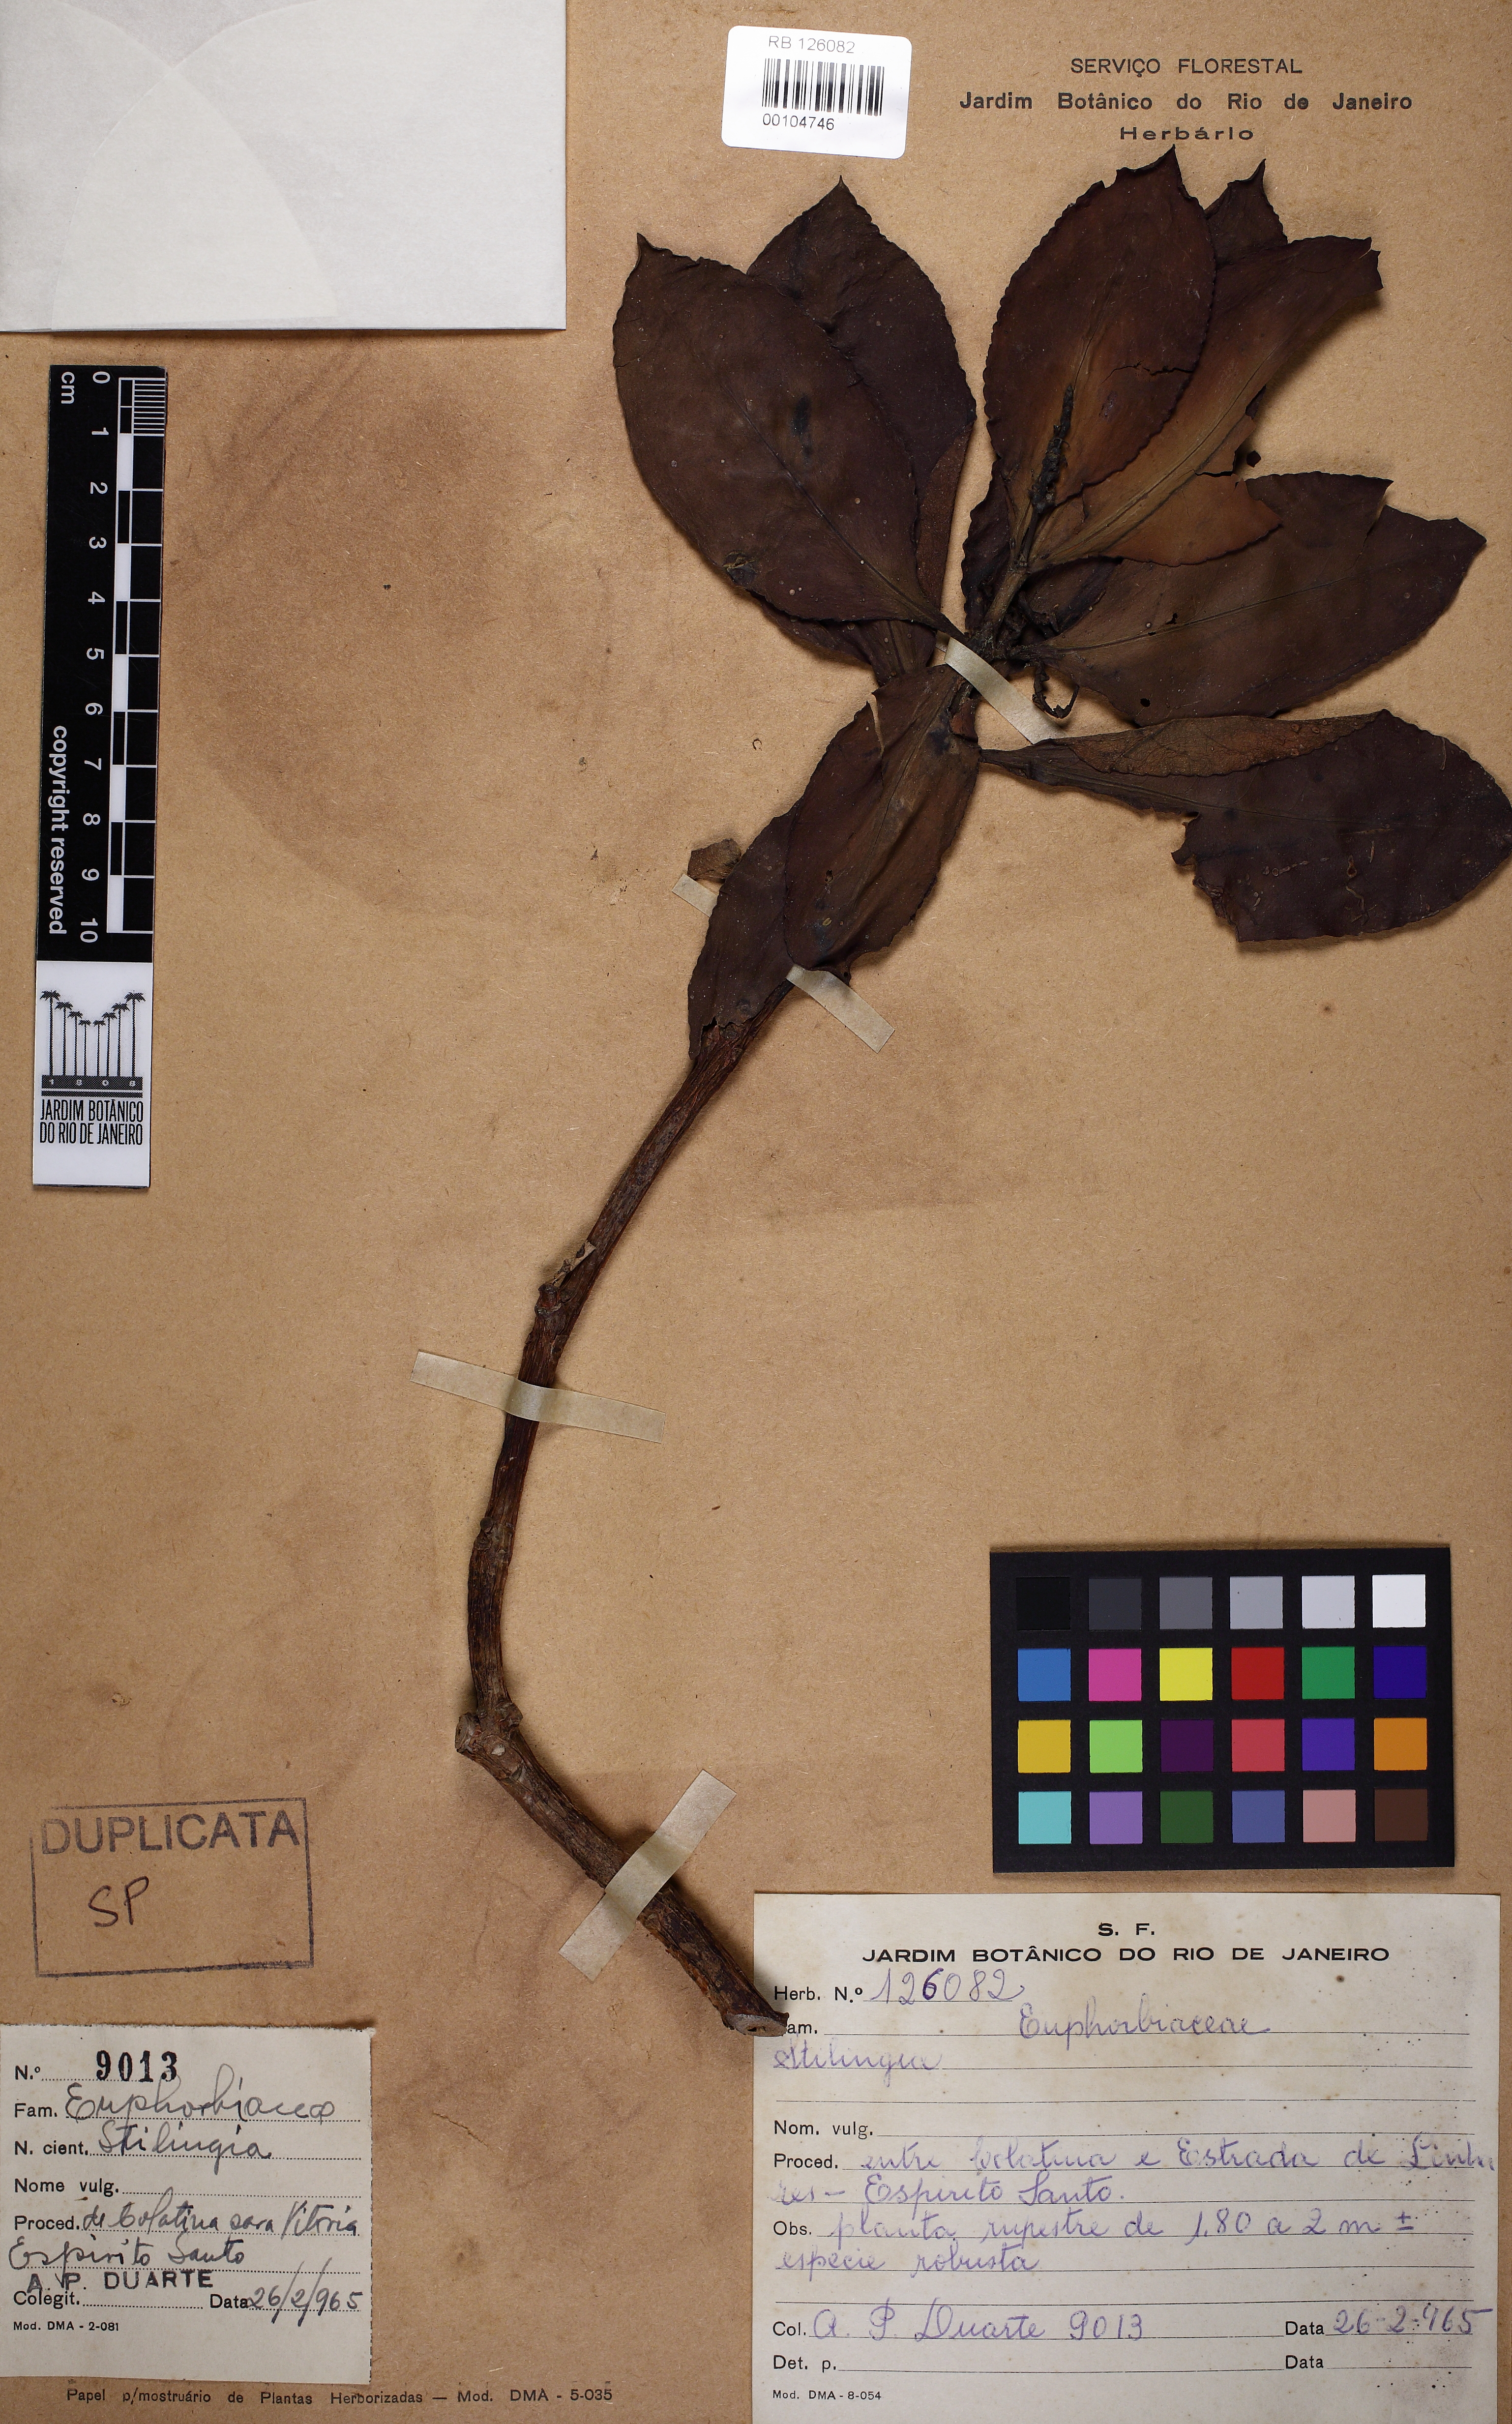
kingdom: Plantae
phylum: Tracheophyta
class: Magnoliopsida
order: Malpighiales
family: Euphorbiaceae
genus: Stillingia
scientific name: Stillingia
